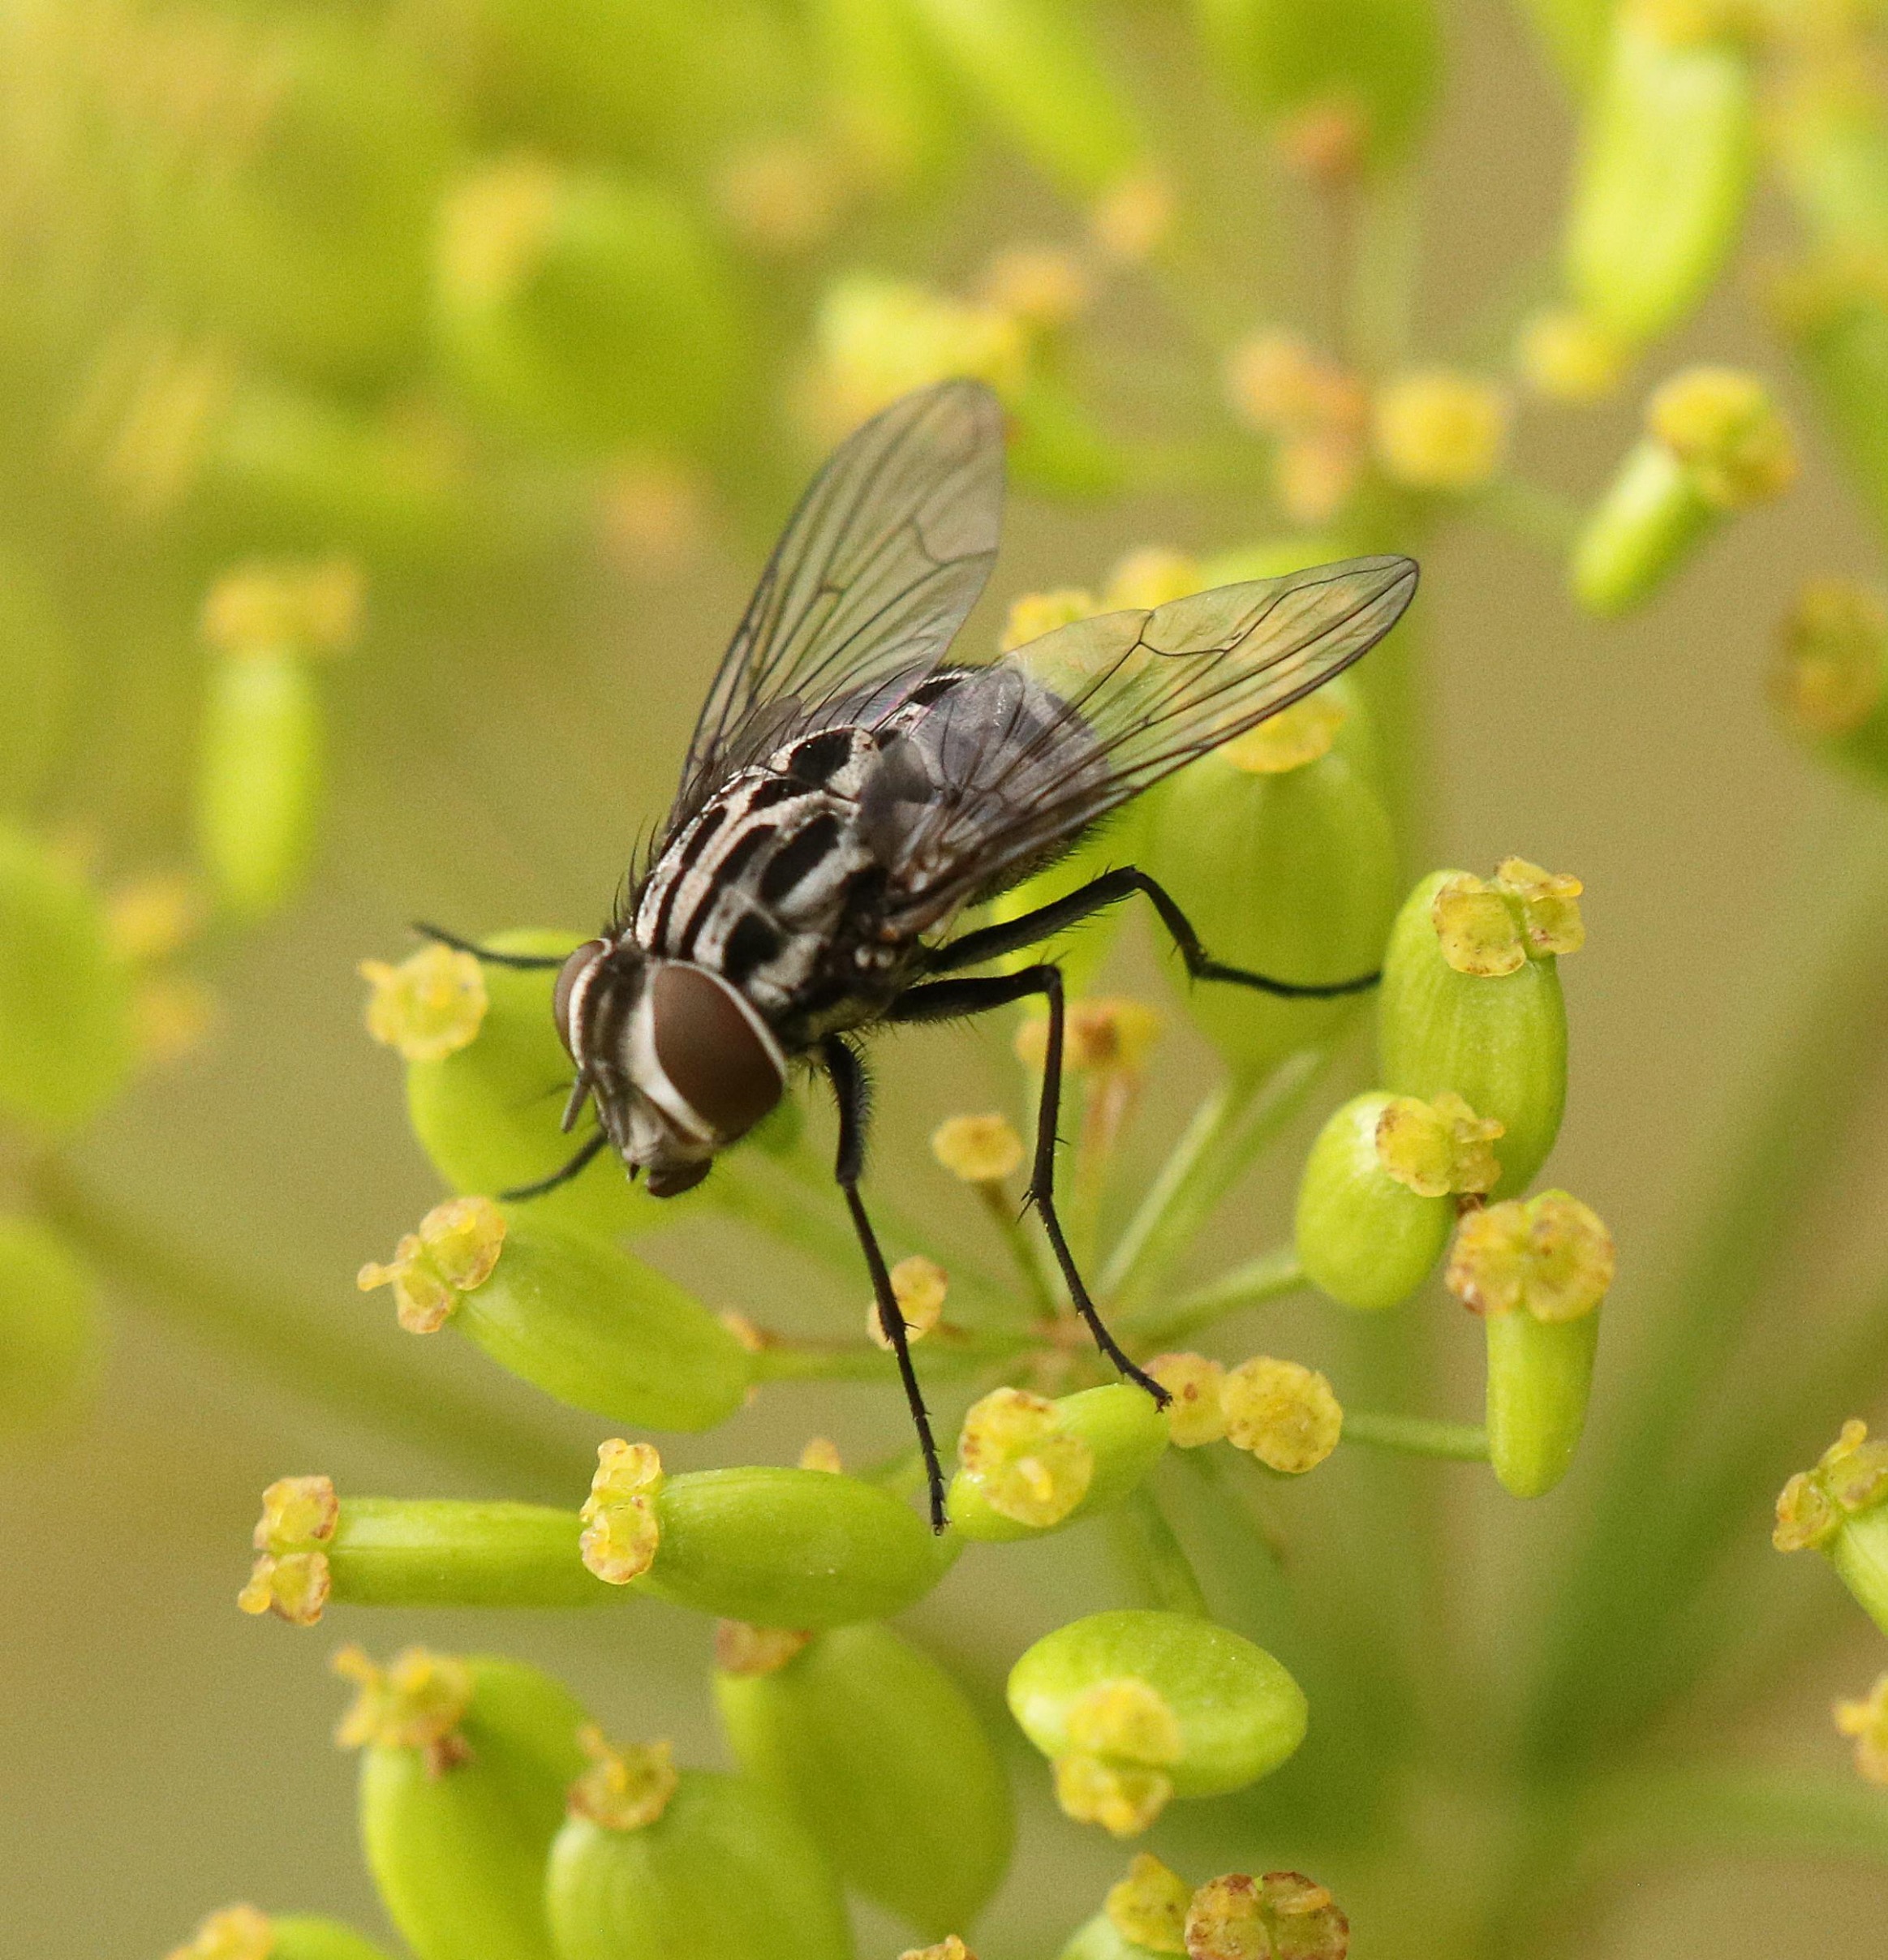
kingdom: Animalia
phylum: Arthropoda
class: Insecta
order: Diptera
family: Muscidae
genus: Graphomya
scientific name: Graphomya maculata
